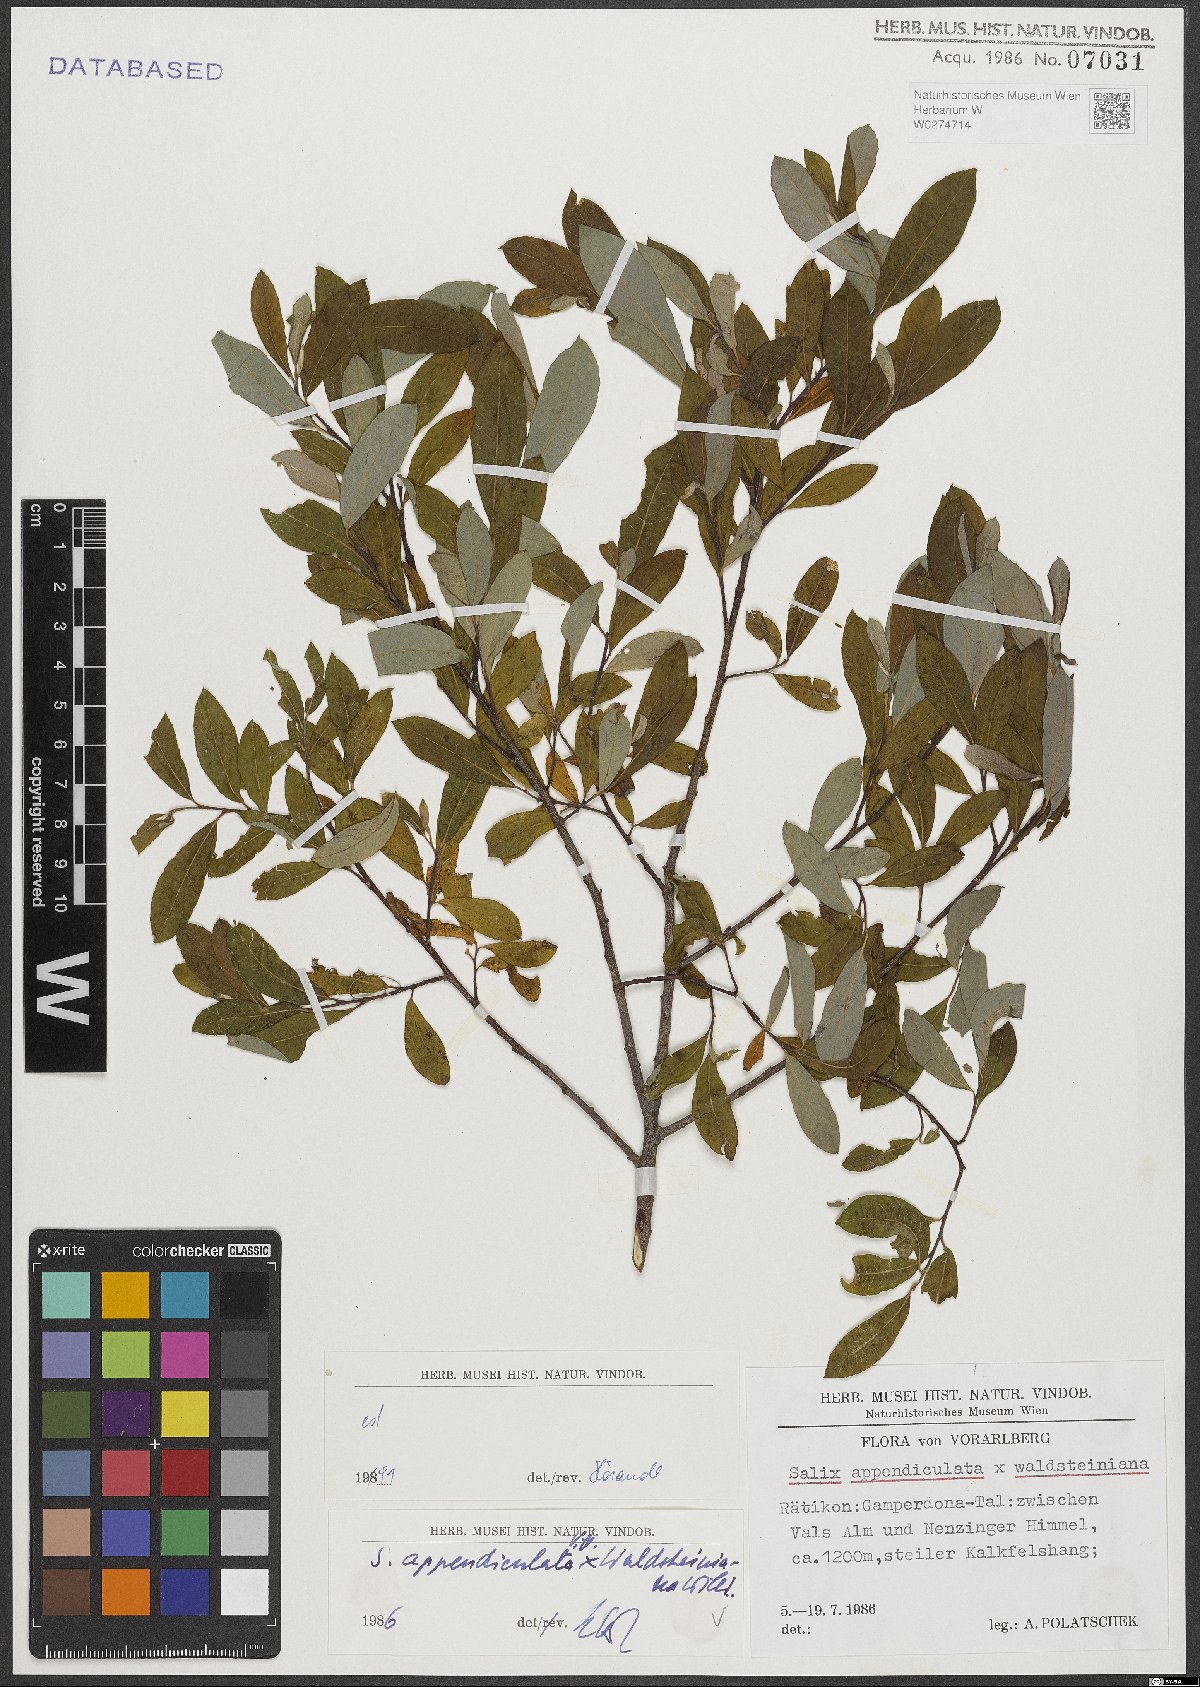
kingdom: Plantae
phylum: Tracheophyta
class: Magnoliopsida
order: Malpighiales
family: Salicaceae
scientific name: Salicaceae
